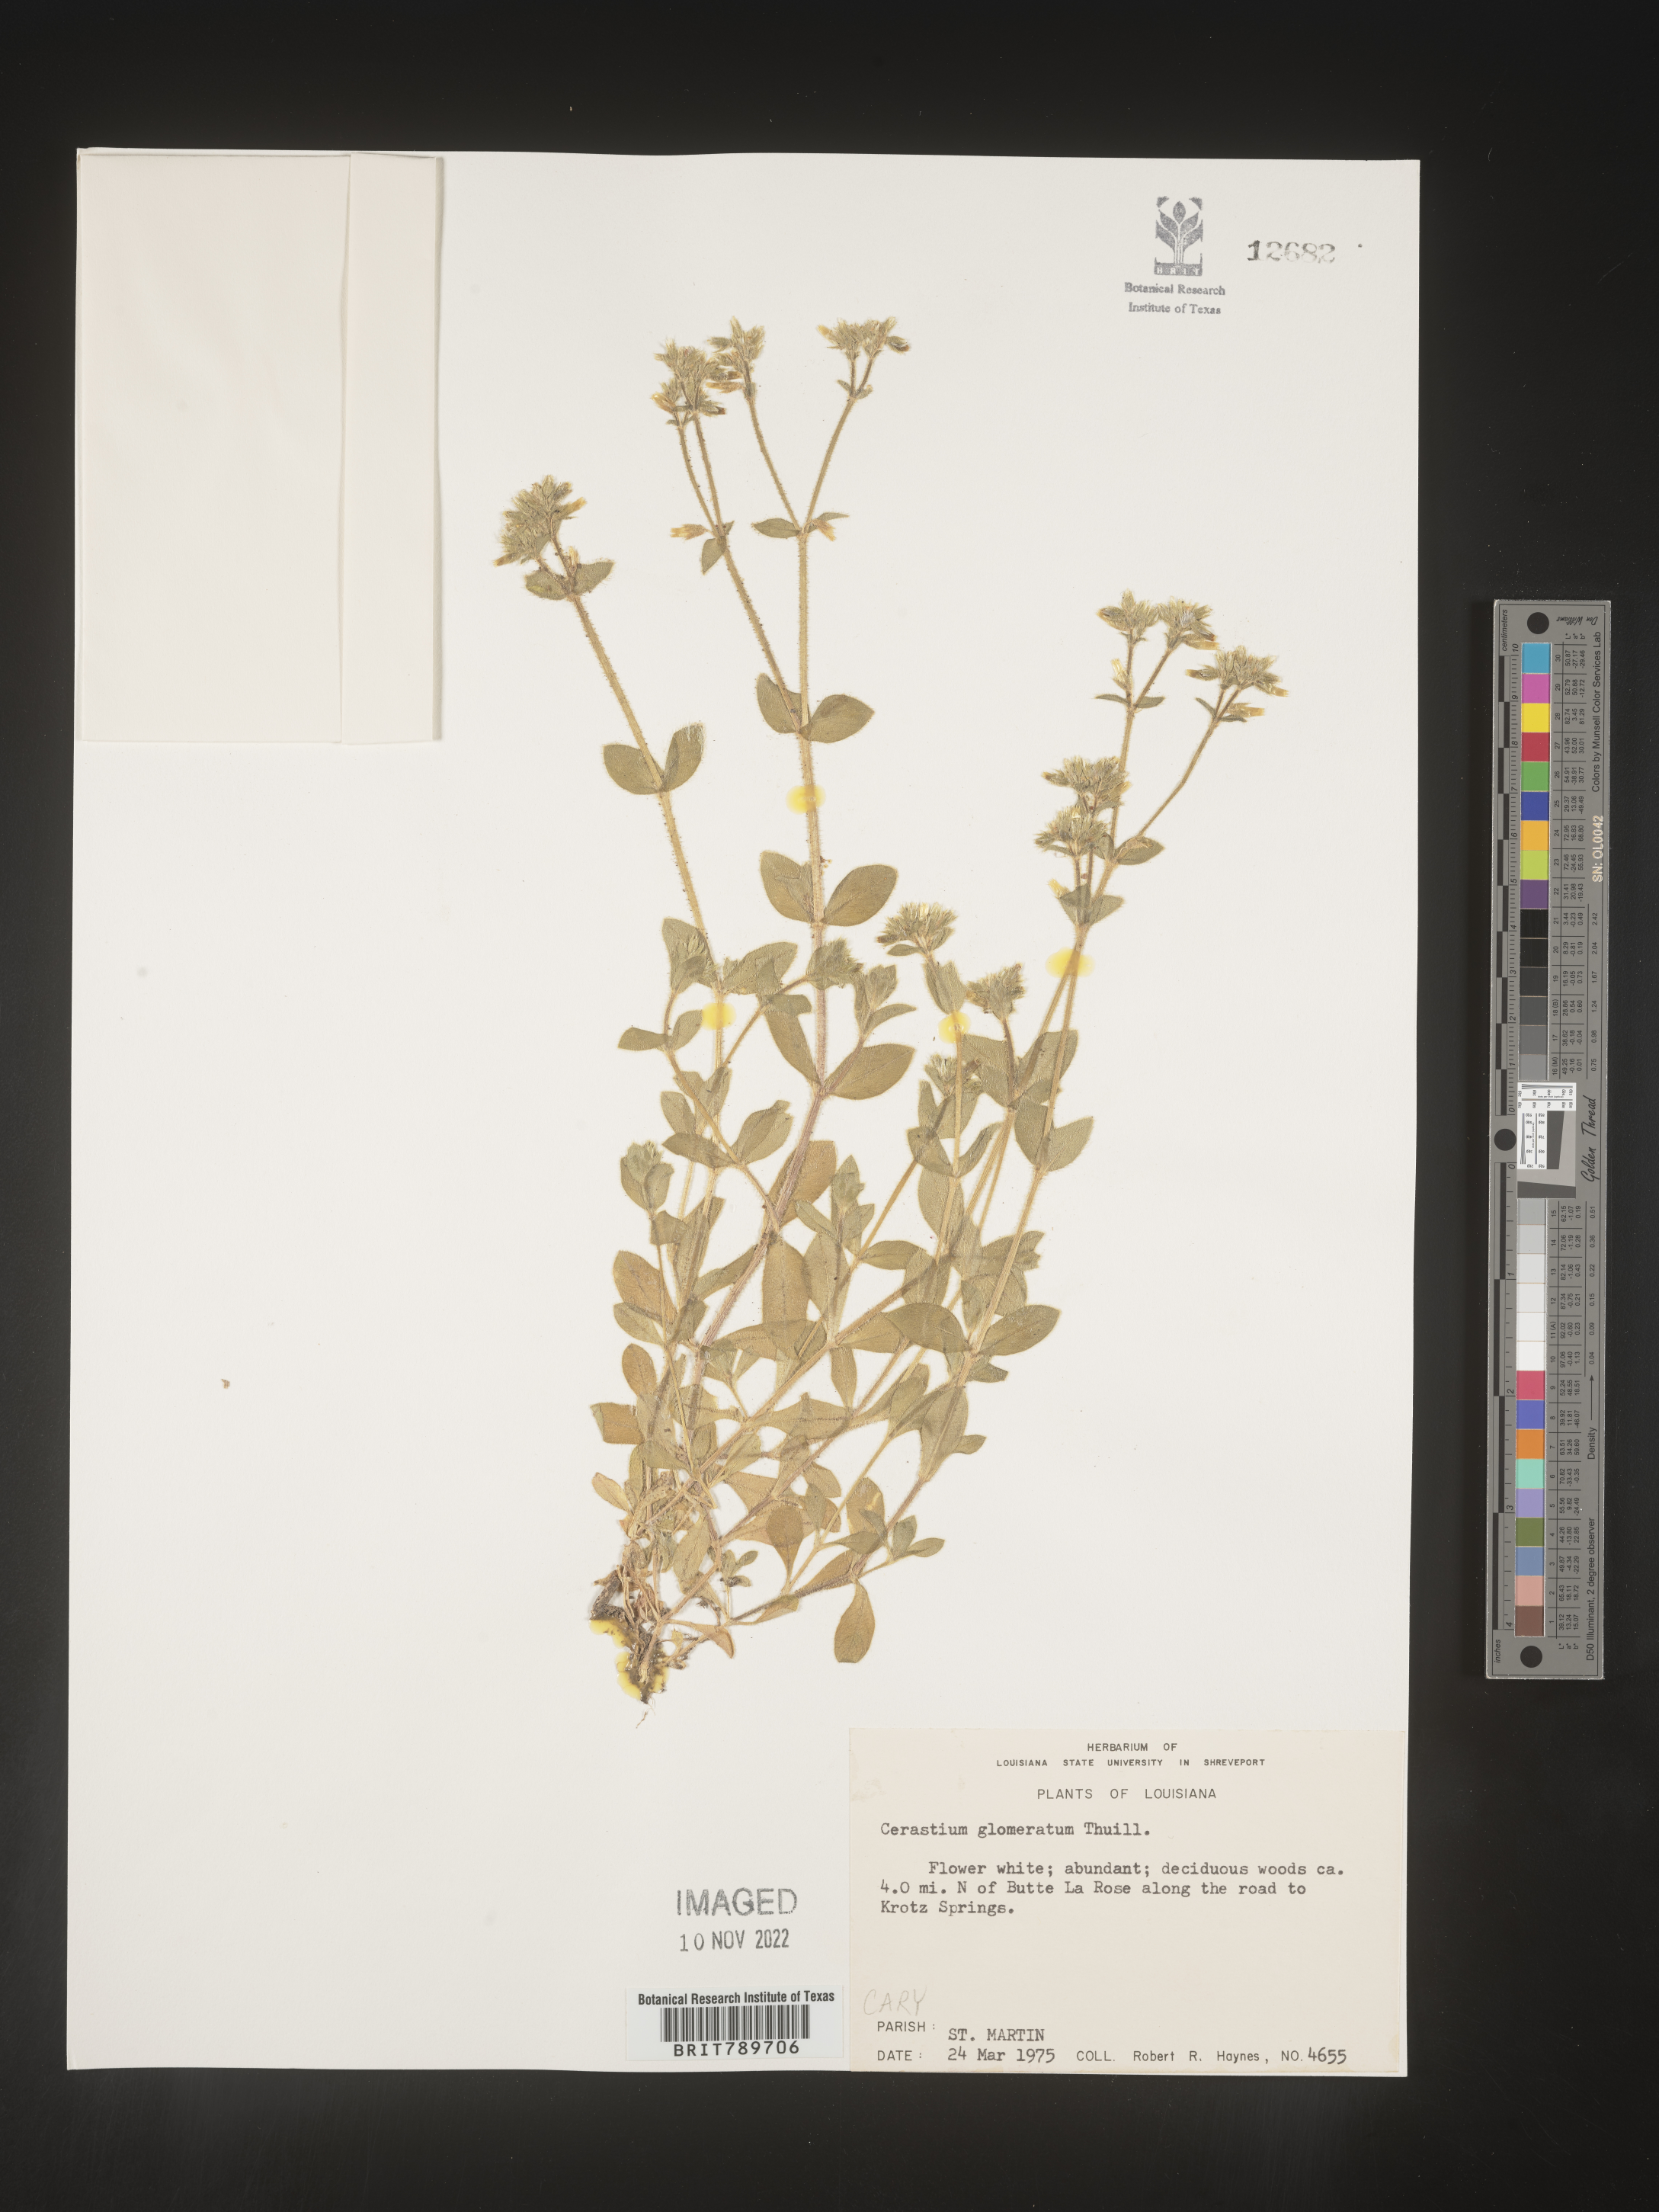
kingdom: Plantae
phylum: Tracheophyta
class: Magnoliopsida
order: Caryophyllales
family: Caryophyllaceae
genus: Cerastium
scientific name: Cerastium glomeratum
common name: Sticky chickweed
